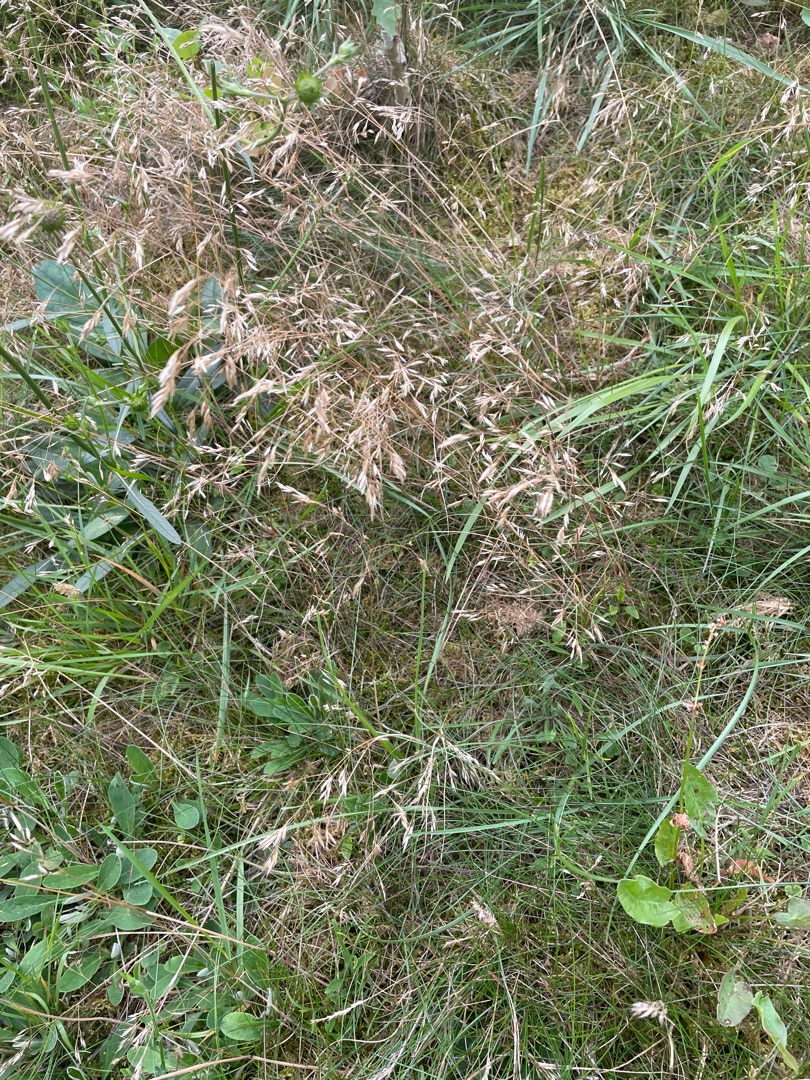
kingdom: Plantae
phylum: Tracheophyta
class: Liliopsida
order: Poales
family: Poaceae
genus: Avenella
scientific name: Avenella flexuosa
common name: Bølget bunke
